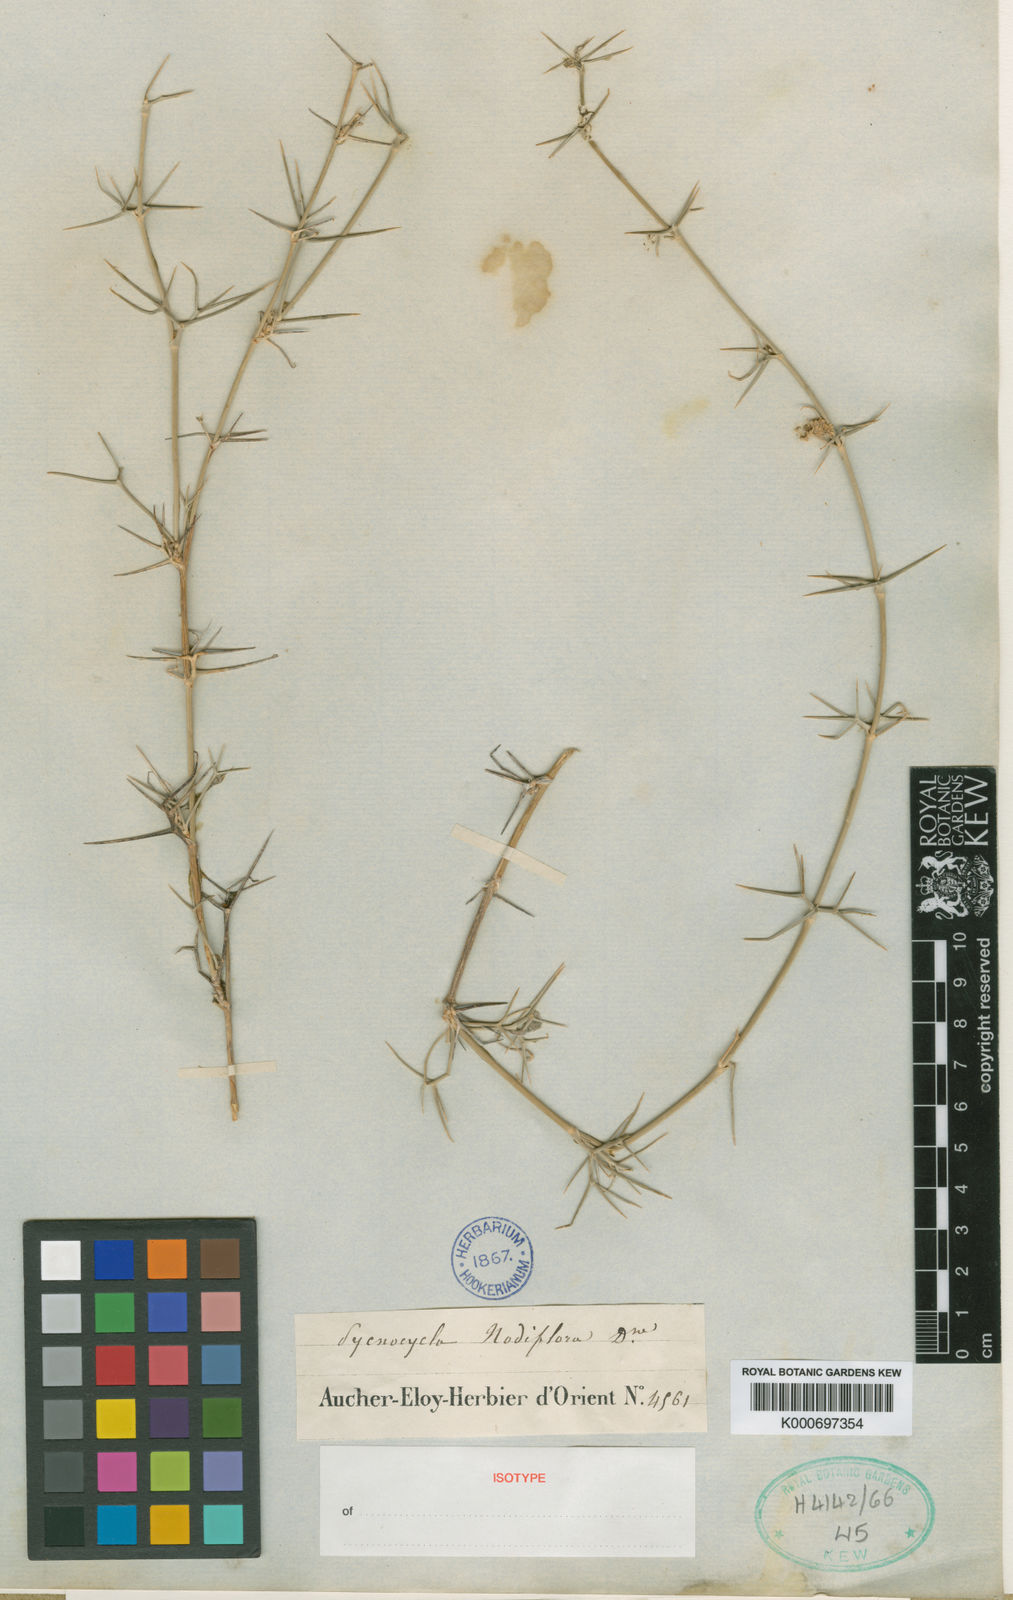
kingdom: Plantae
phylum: Tracheophyta
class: Magnoliopsida
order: Apiales
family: Apiaceae
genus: Pycnocycla
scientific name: Pycnocycla nodiflora
